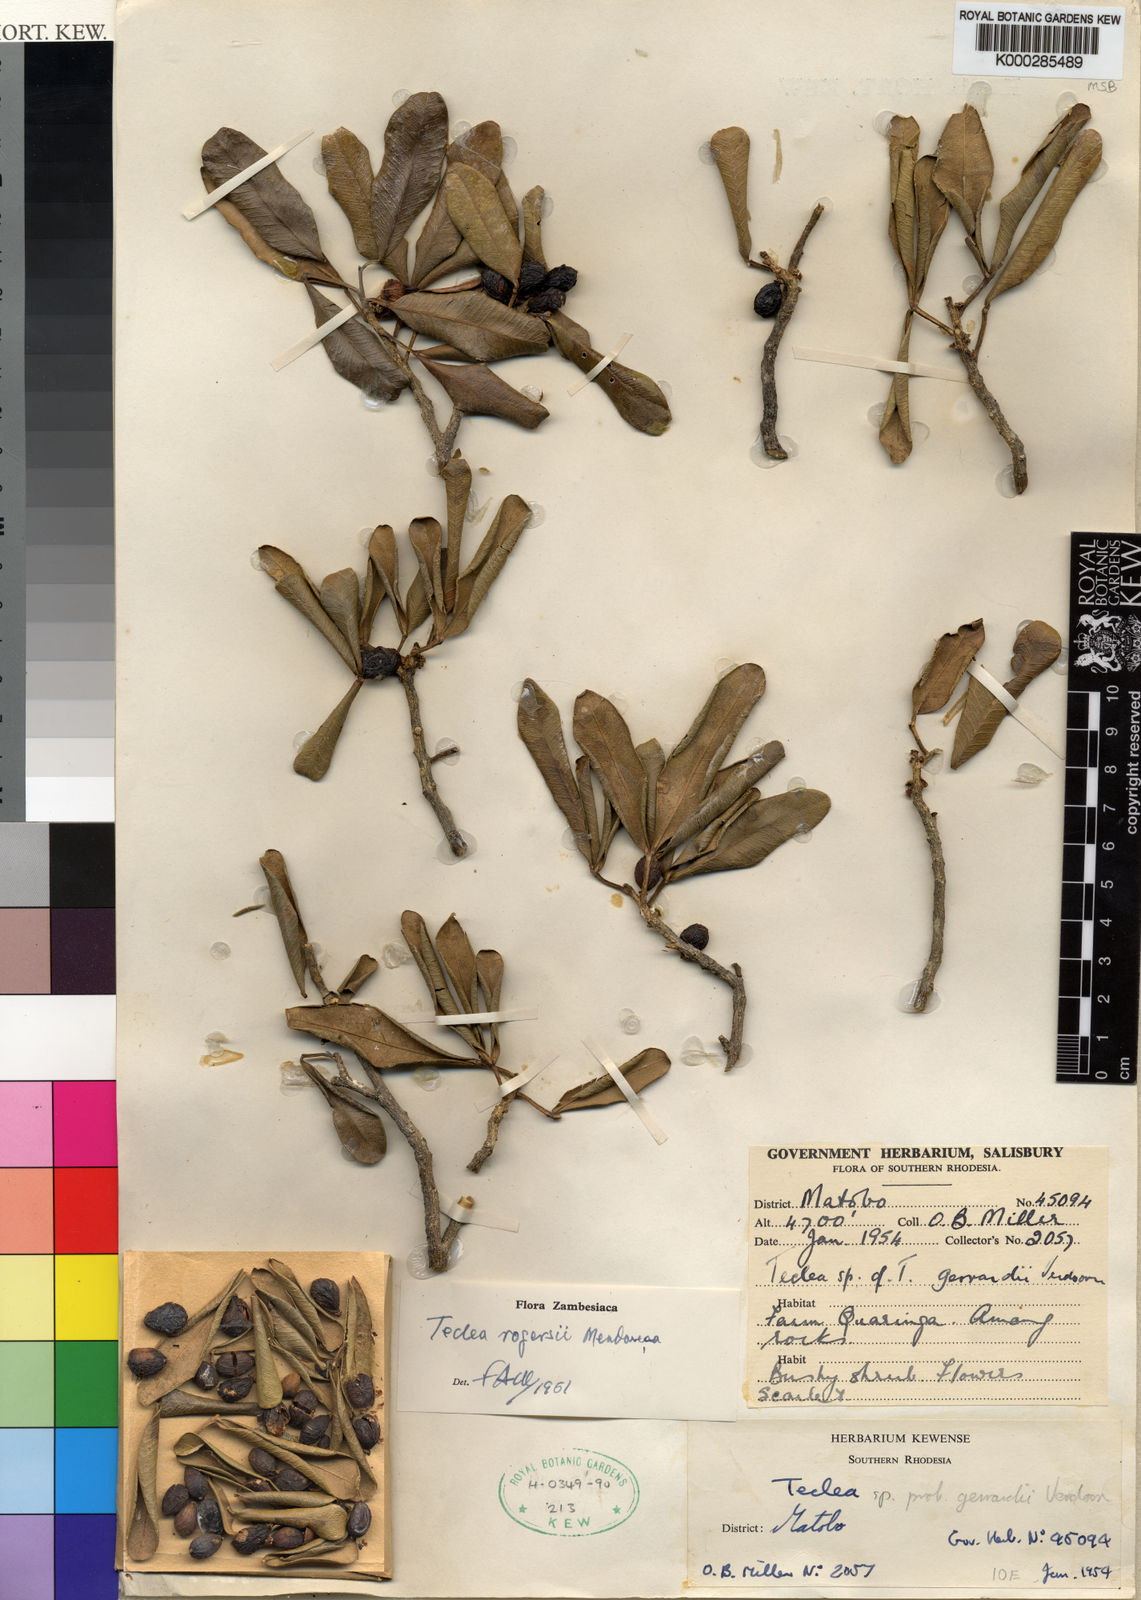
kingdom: Plantae
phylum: Tracheophyta
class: Magnoliopsida
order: Sapindales
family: Rutaceae
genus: Vepris
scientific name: Vepris
